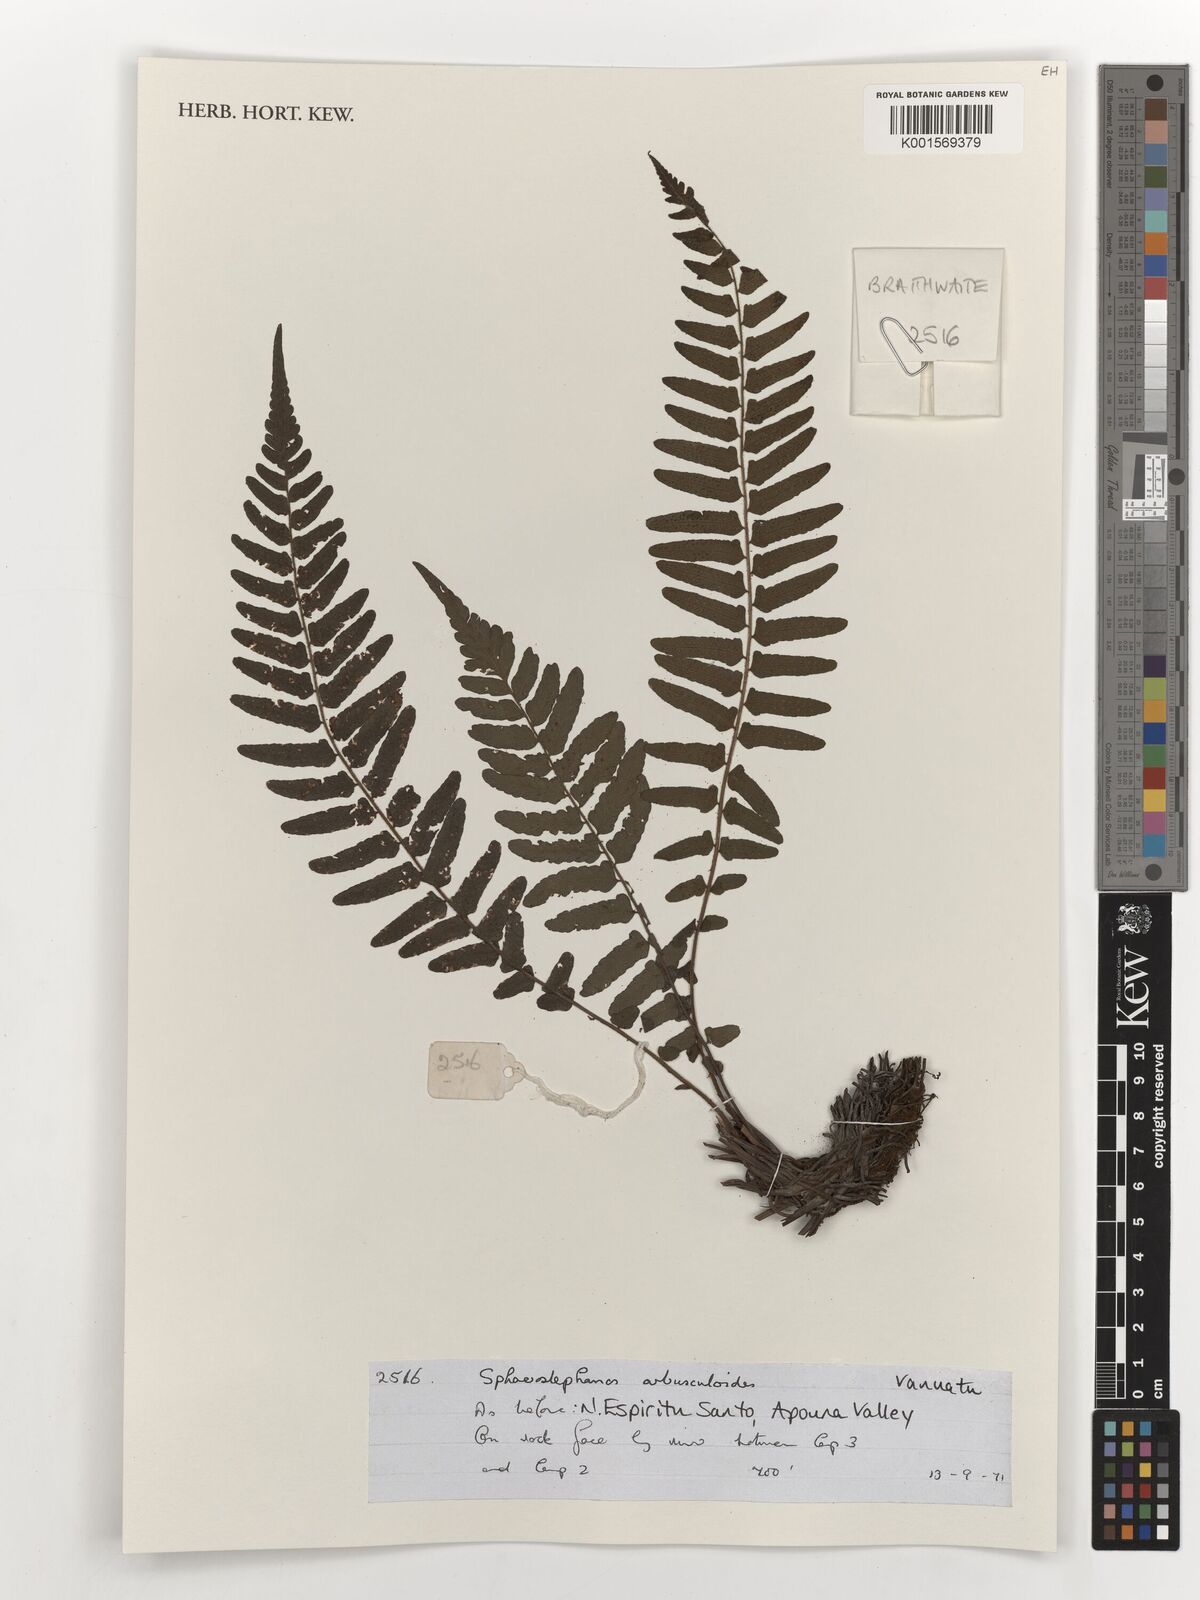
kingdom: Plantae
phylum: Tracheophyta
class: Polypodiopsida
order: Polypodiales
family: Thelypteridaceae
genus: Sphaerostephanos
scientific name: Sphaerostephanos
